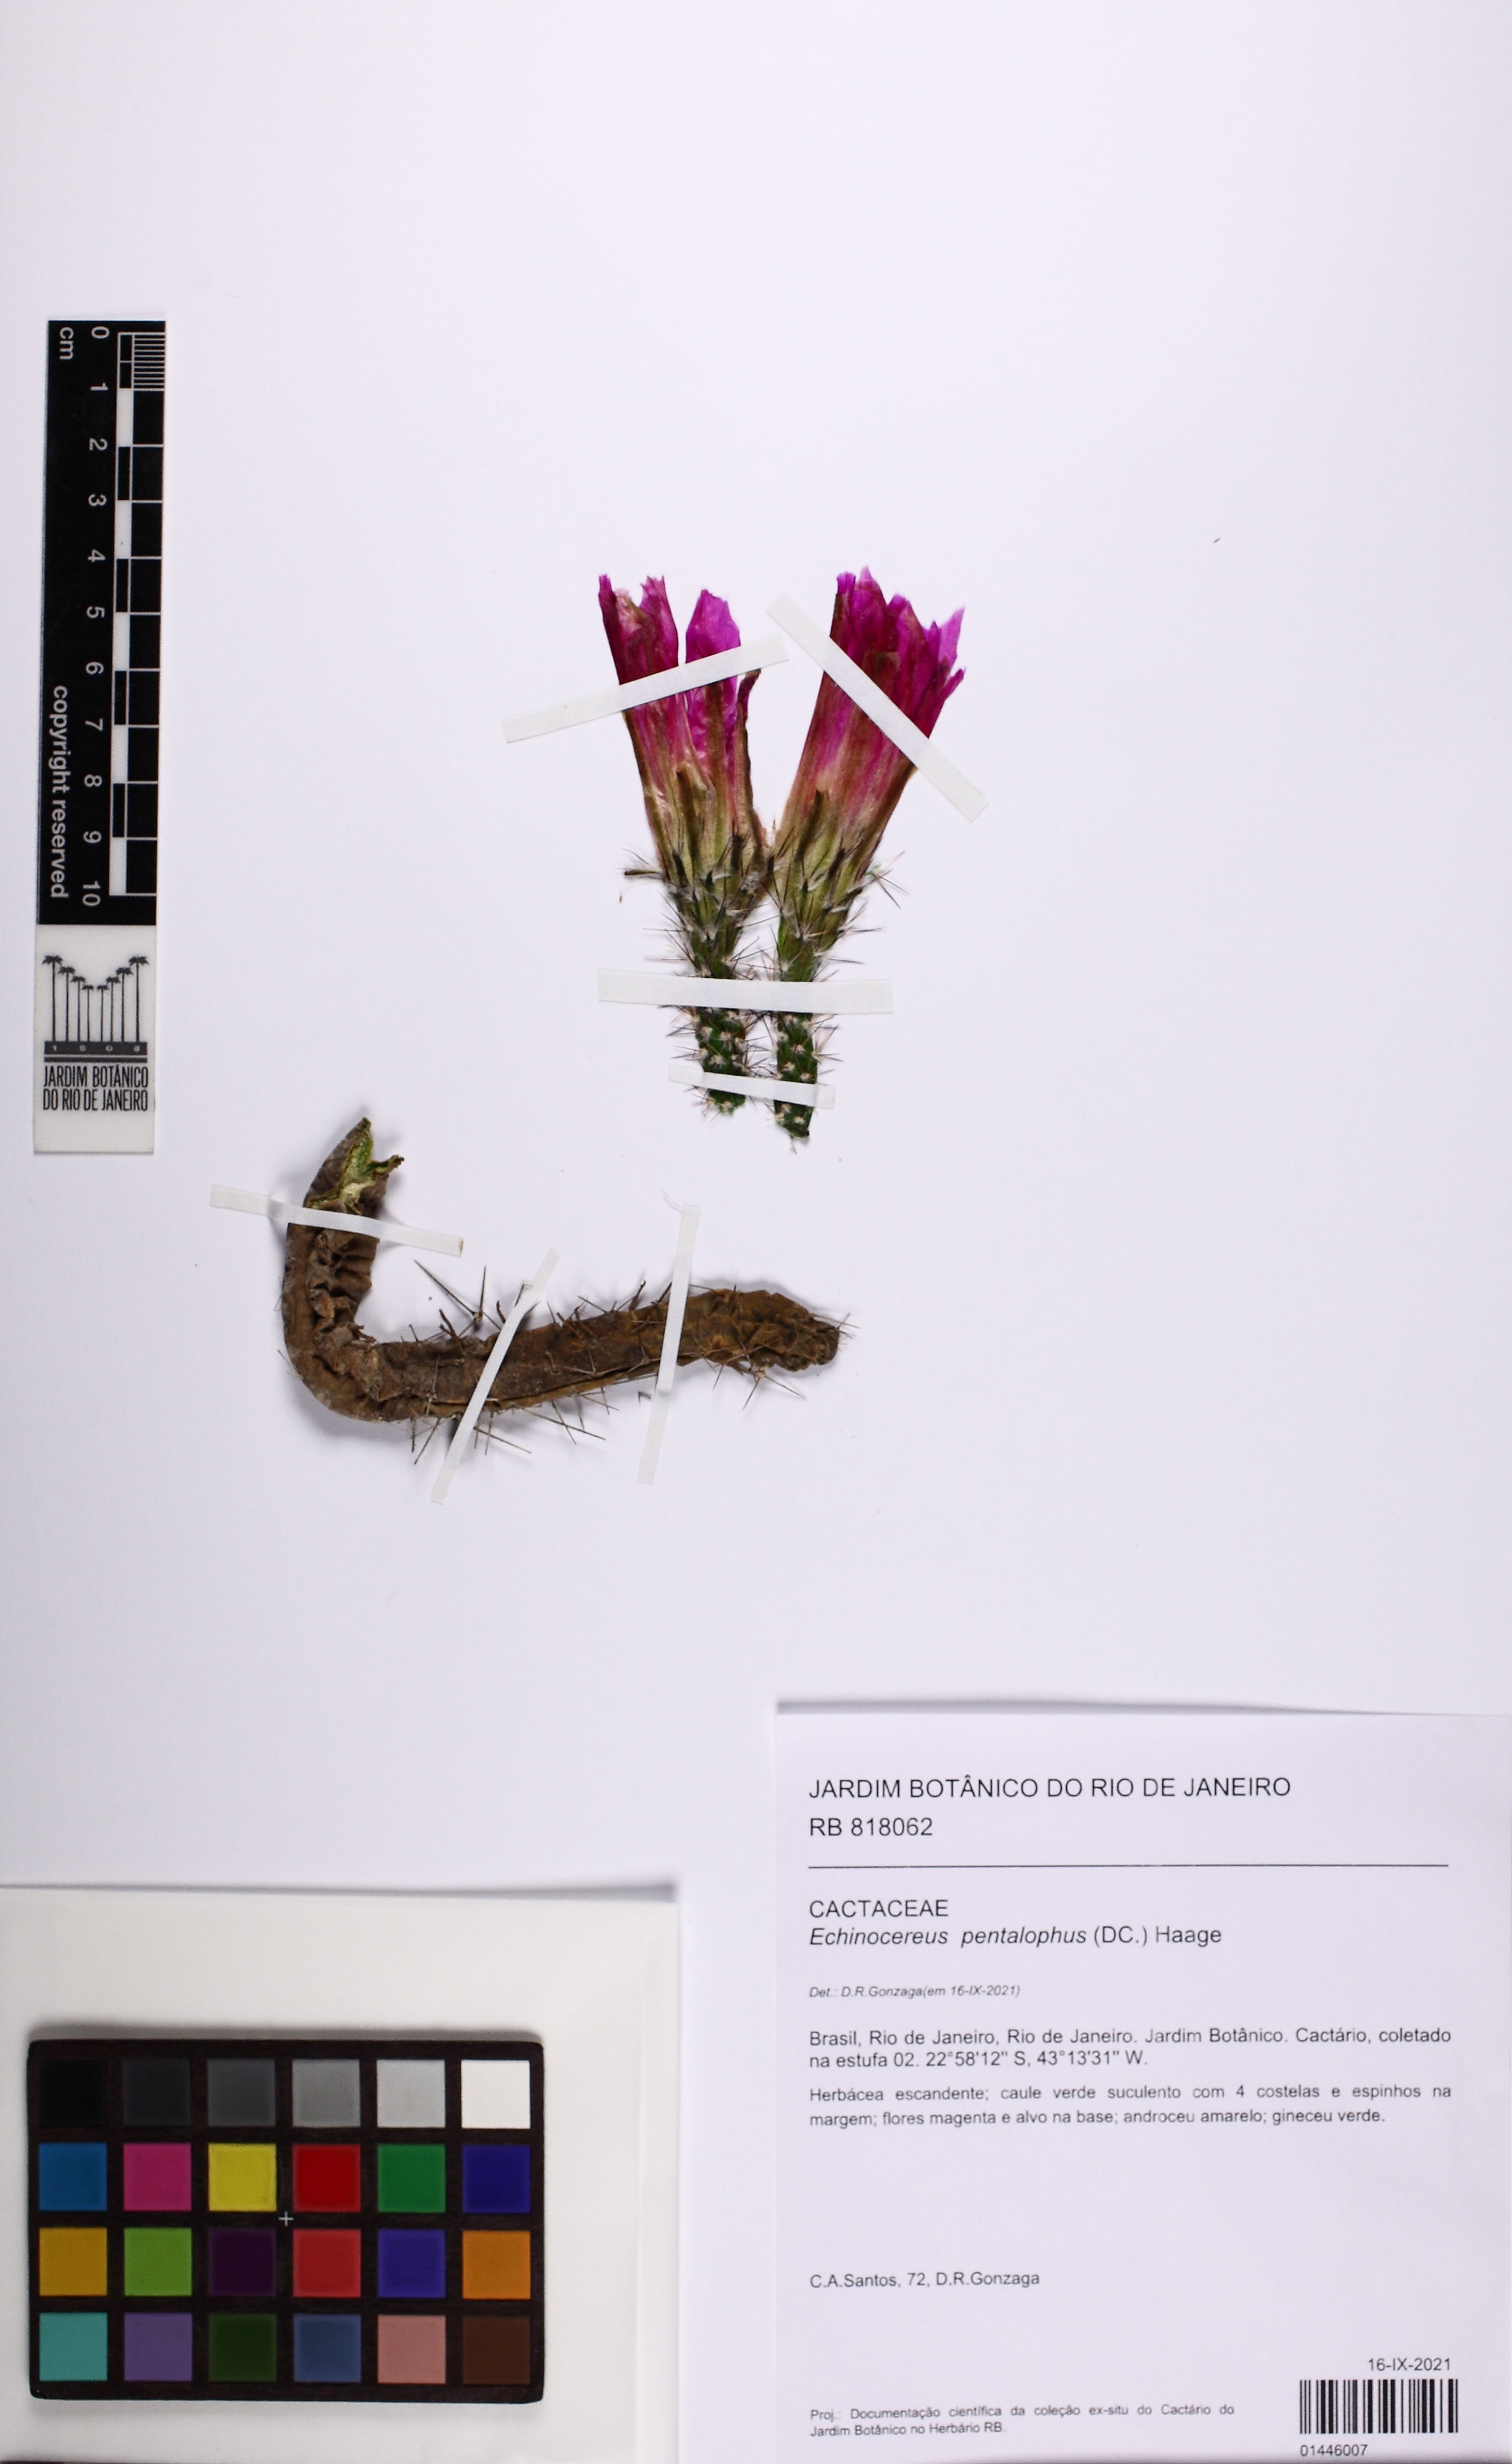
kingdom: Plantae
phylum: Tracheophyta
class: Magnoliopsida
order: Caryophyllales
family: Cactaceae
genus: Echinocereus
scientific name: Echinocereus pentalophus
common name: Ladyfinger cactus
